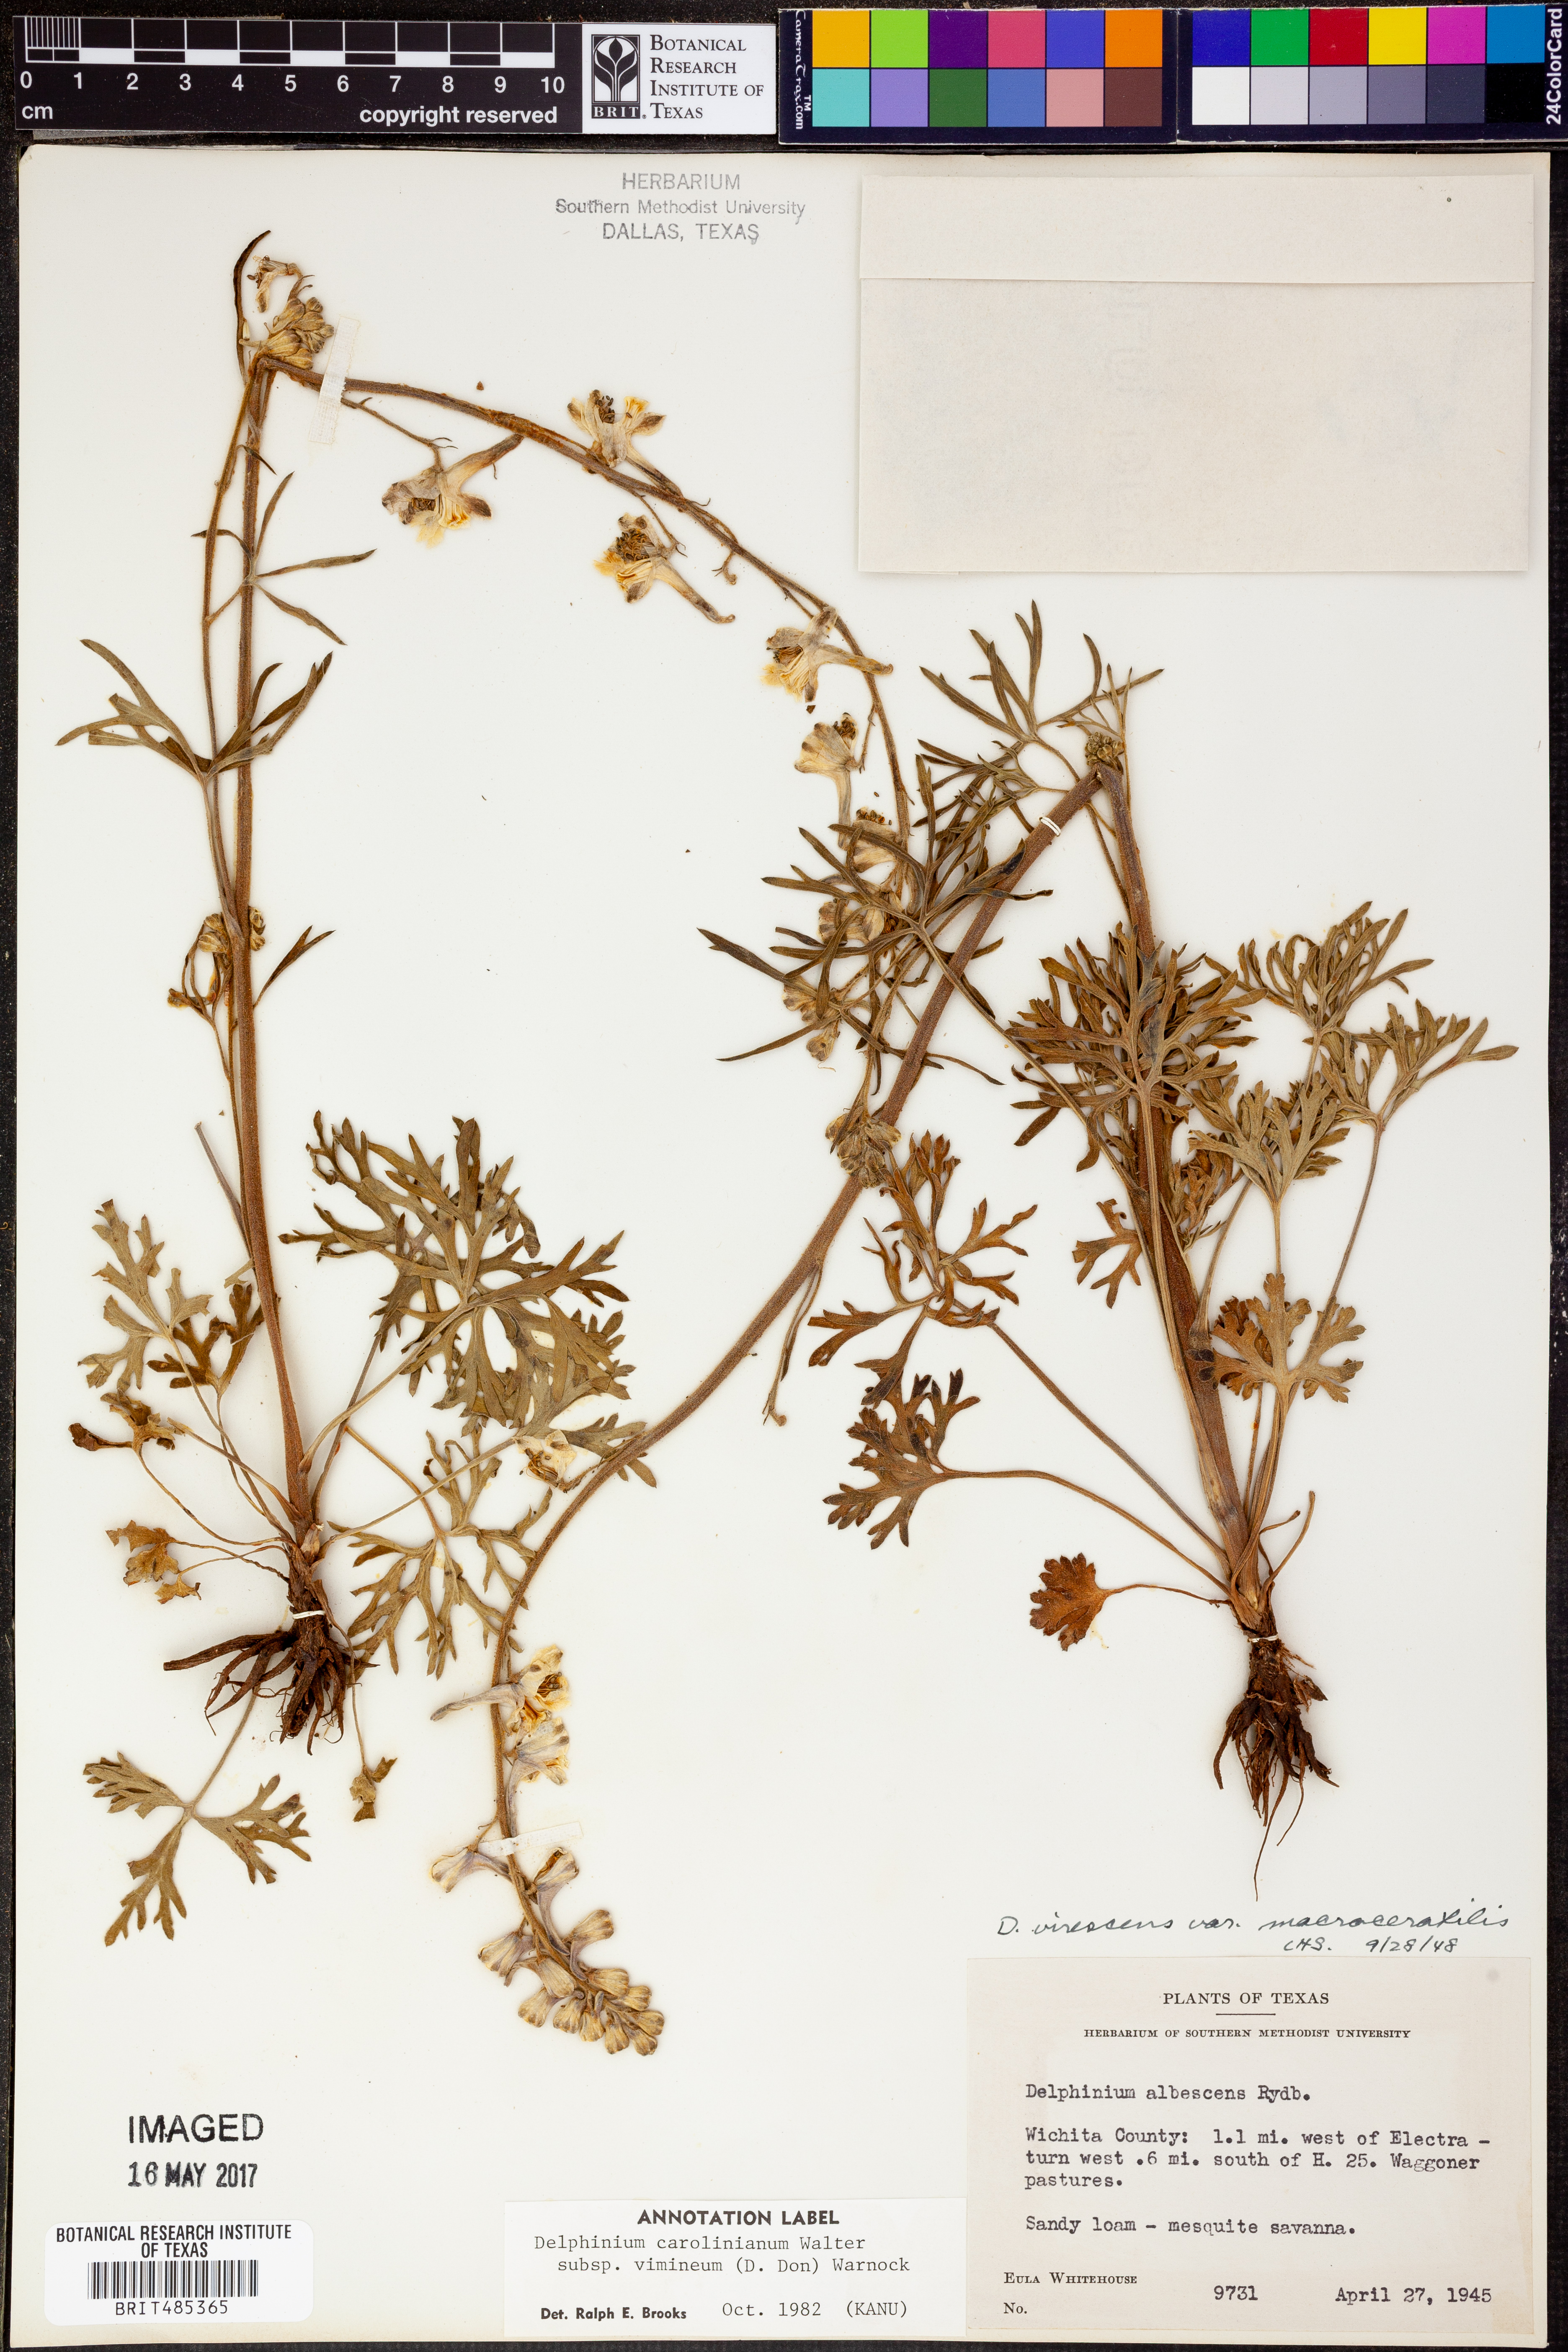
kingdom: Plantae
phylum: Tracheophyta
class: Magnoliopsida
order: Ranunculales
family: Ranunculaceae
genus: Delphinium
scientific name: Delphinium carolinianum
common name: Carolina larkspur
